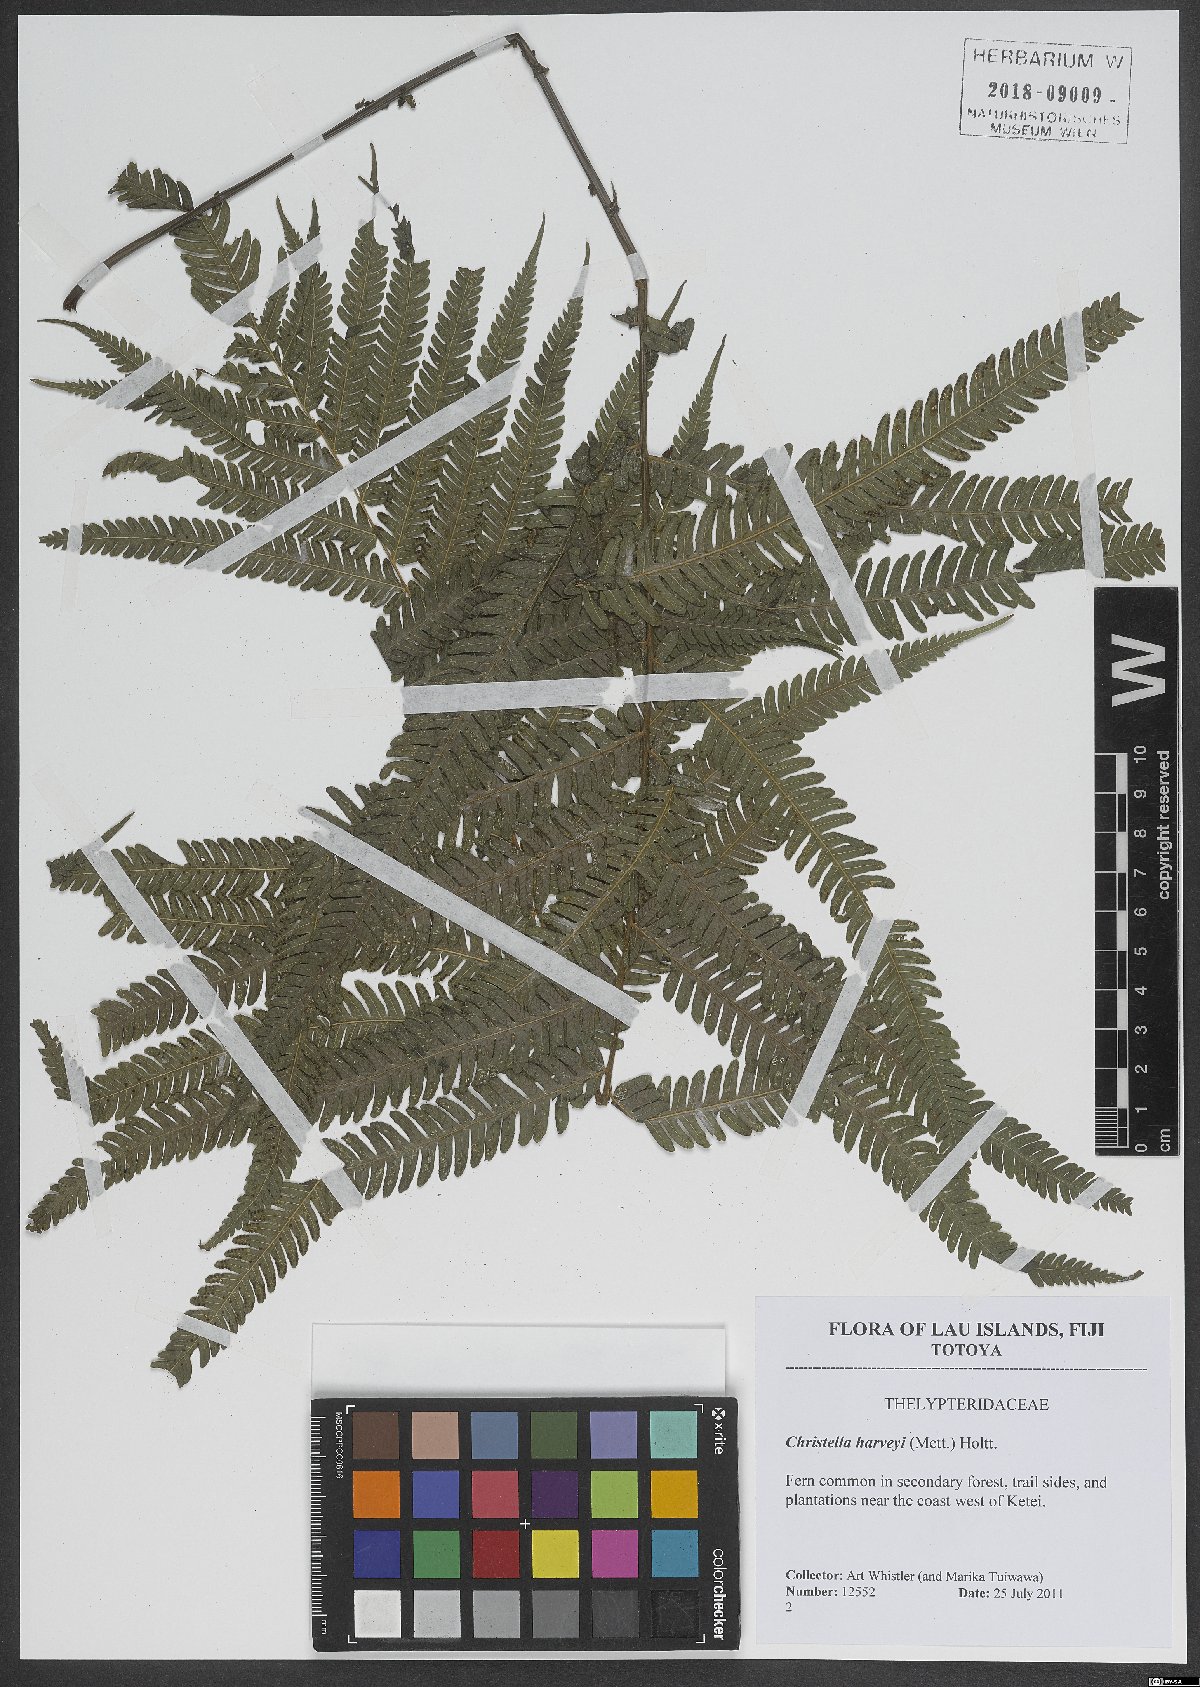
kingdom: Plantae
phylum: Tracheophyta
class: Polypodiopsida
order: Polypodiales
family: Thelypteridaceae
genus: Christella
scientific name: Christella harveyi
